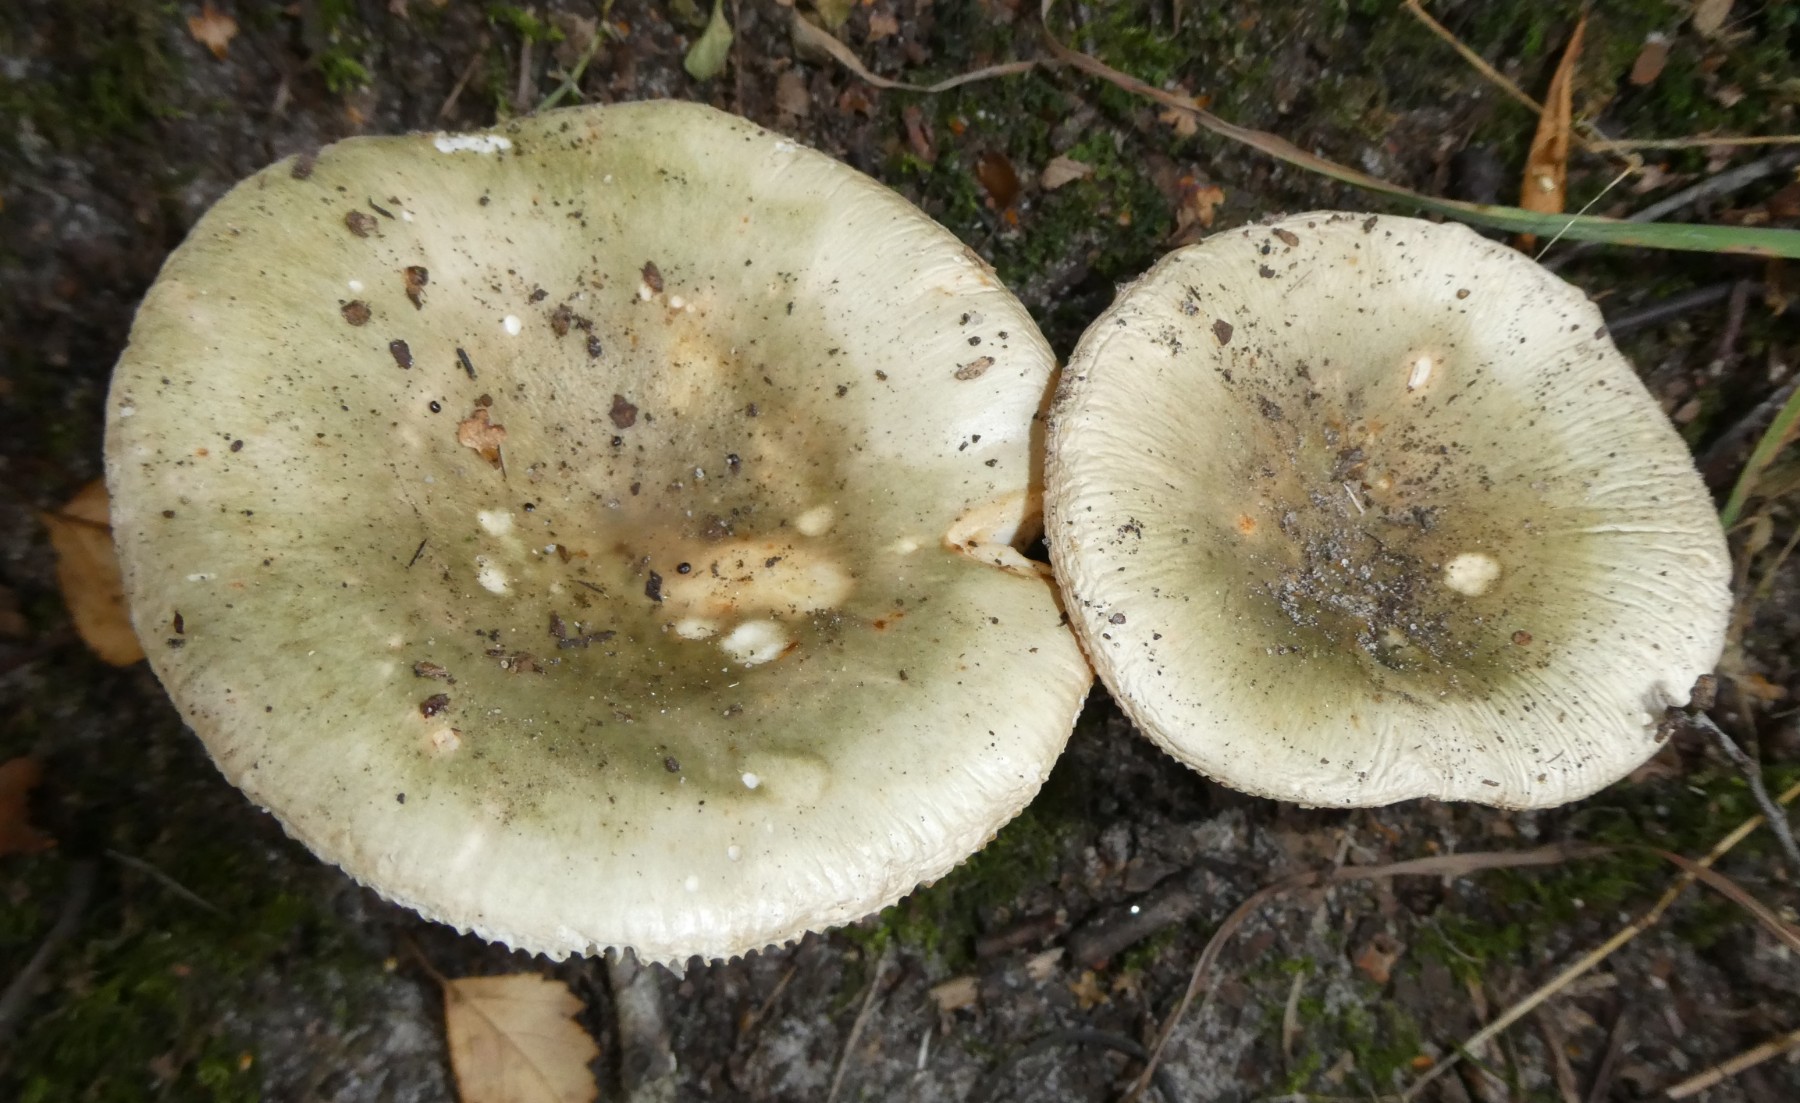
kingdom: Fungi
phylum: Basidiomycota
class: Agaricomycetes
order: Russulales
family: Russulaceae
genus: Russula
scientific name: Russula aeruginea
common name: græsgrøn skørhat
